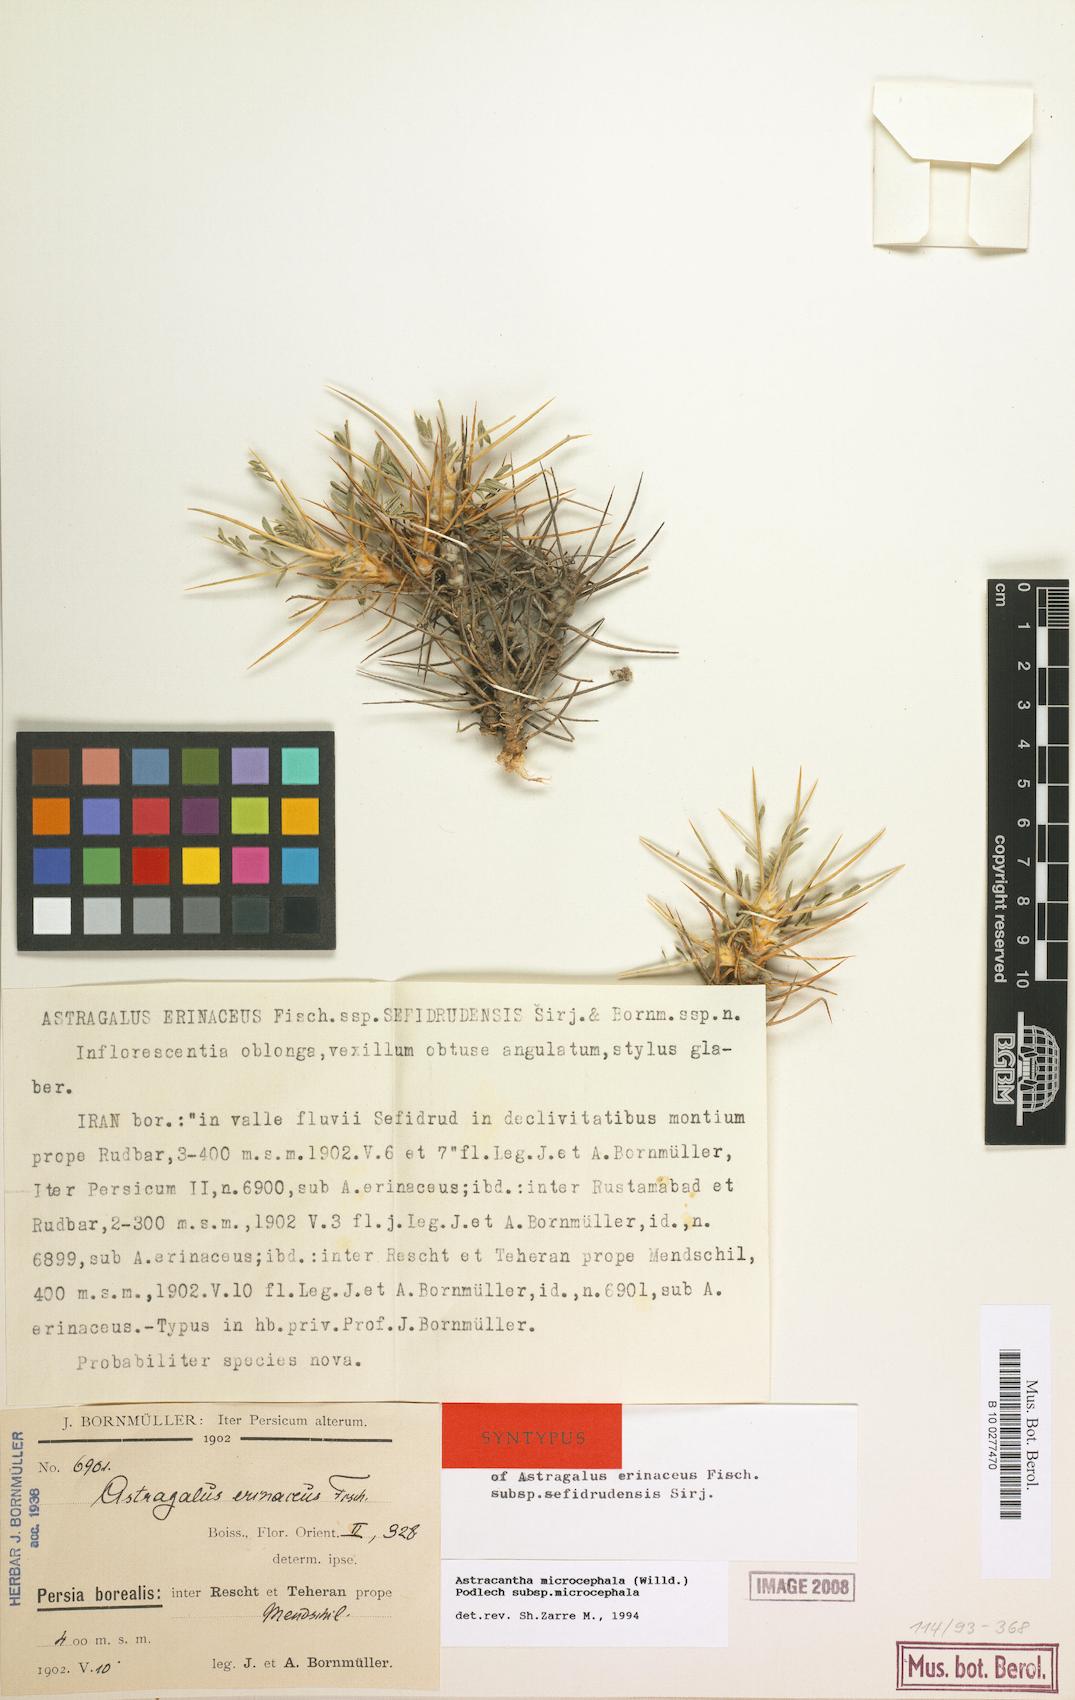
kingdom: Plantae
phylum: Tracheophyta
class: Magnoliopsida
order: Fabales
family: Fabaceae
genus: Astragalus
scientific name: Astragalus microcephalus
